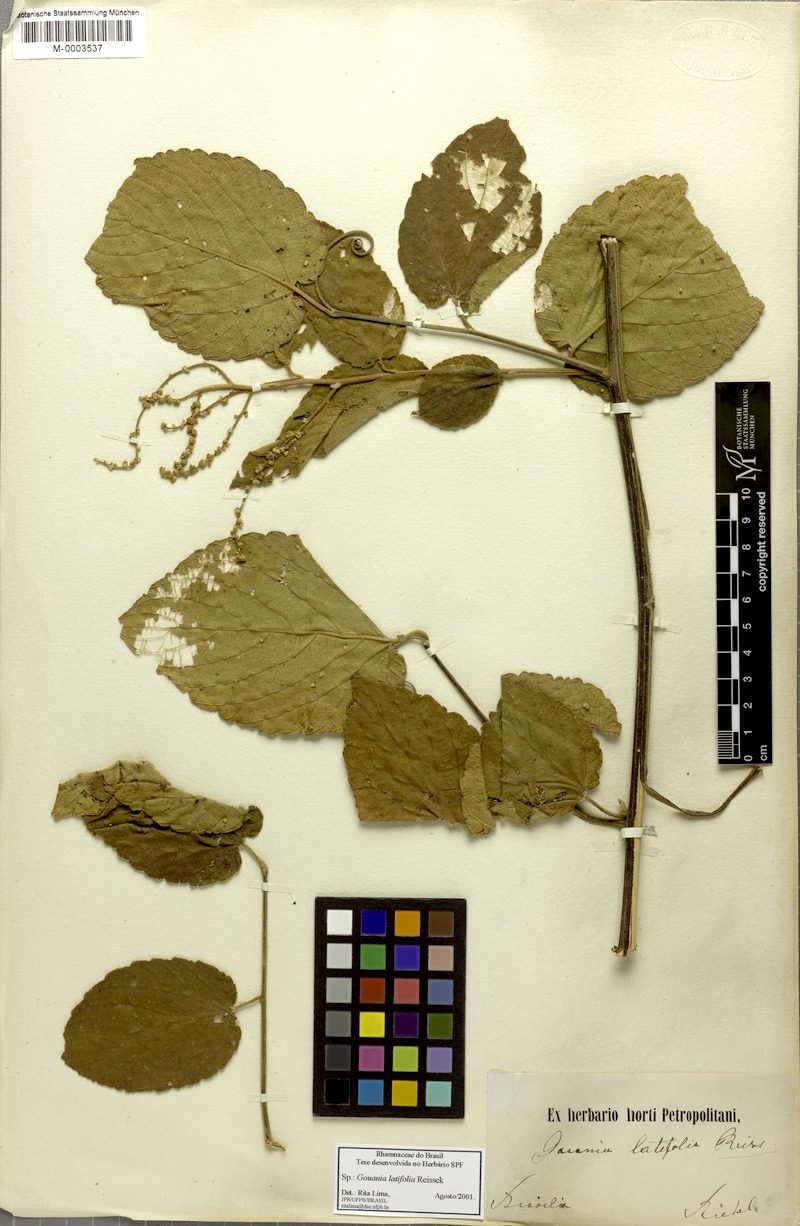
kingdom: Plantae
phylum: Tracheophyta
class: Magnoliopsida
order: Rosales
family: Rhamnaceae
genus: Gouania
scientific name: Gouania latifolia
